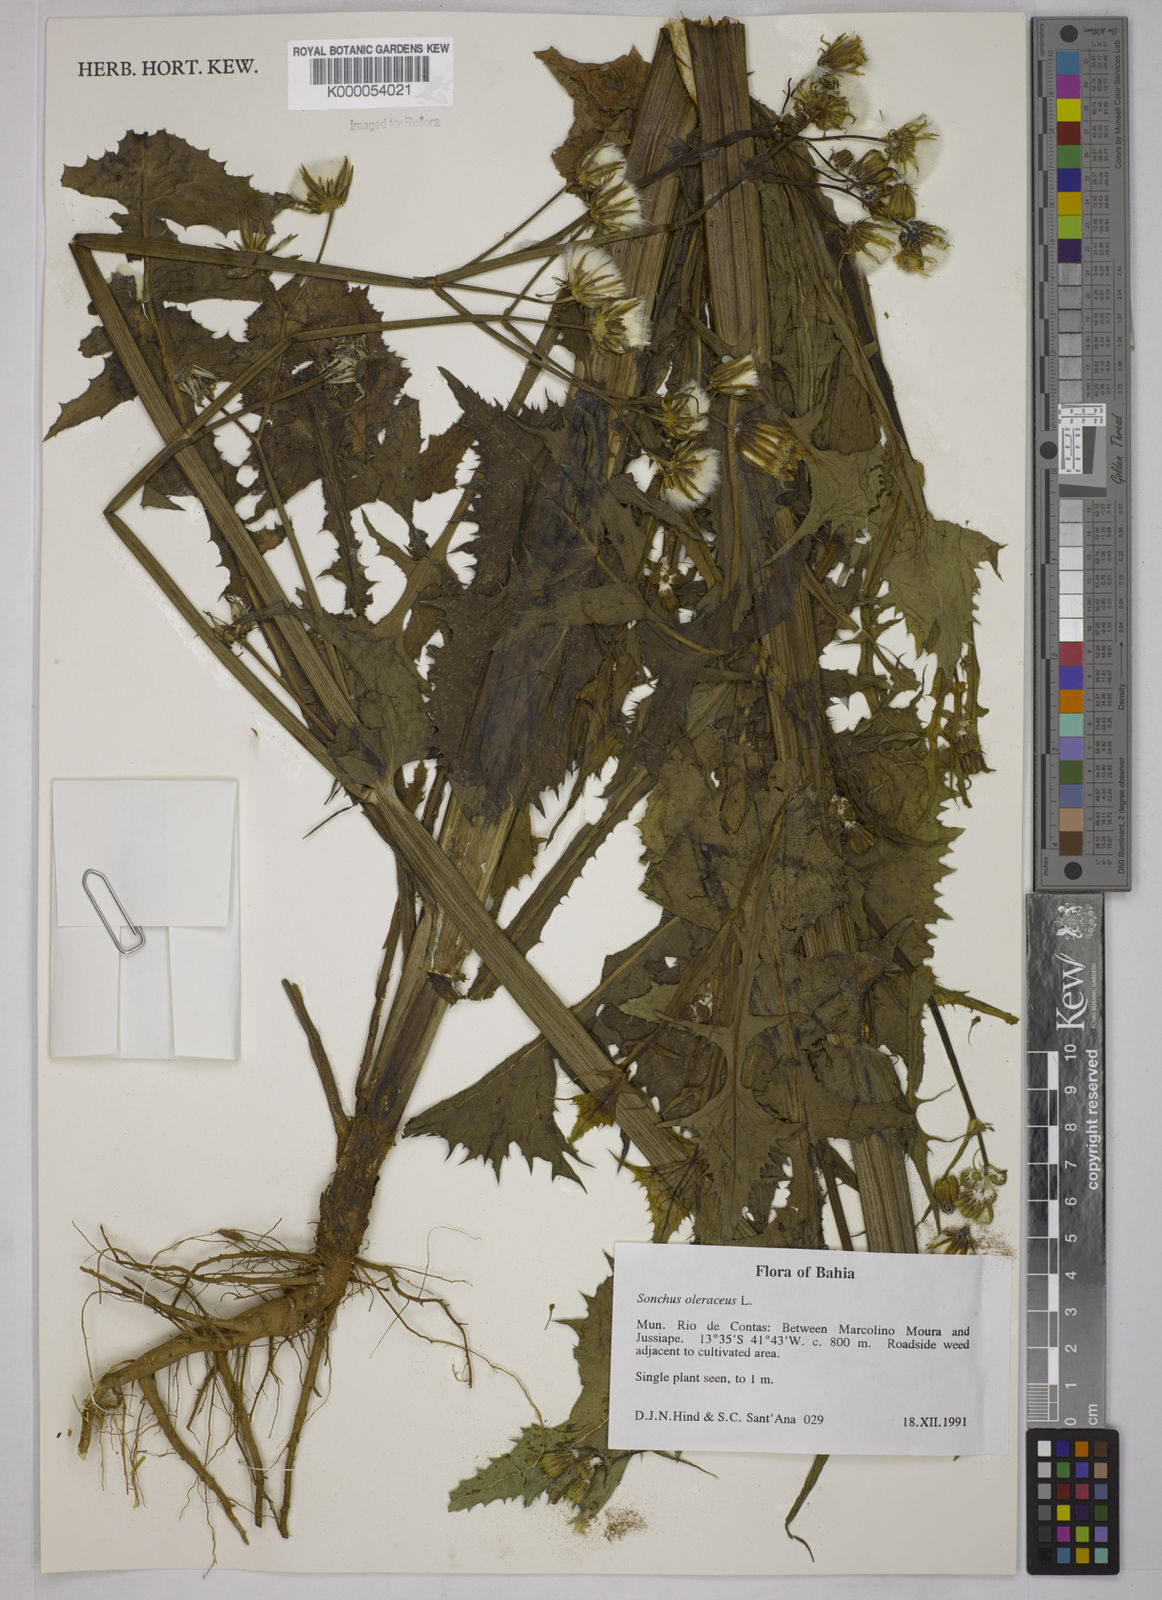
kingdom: Plantae
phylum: Tracheophyta
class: Magnoliopsida
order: Asterales
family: Asteraceae
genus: Sonchus
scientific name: Sonchus oleraceus
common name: Common sowthistle
